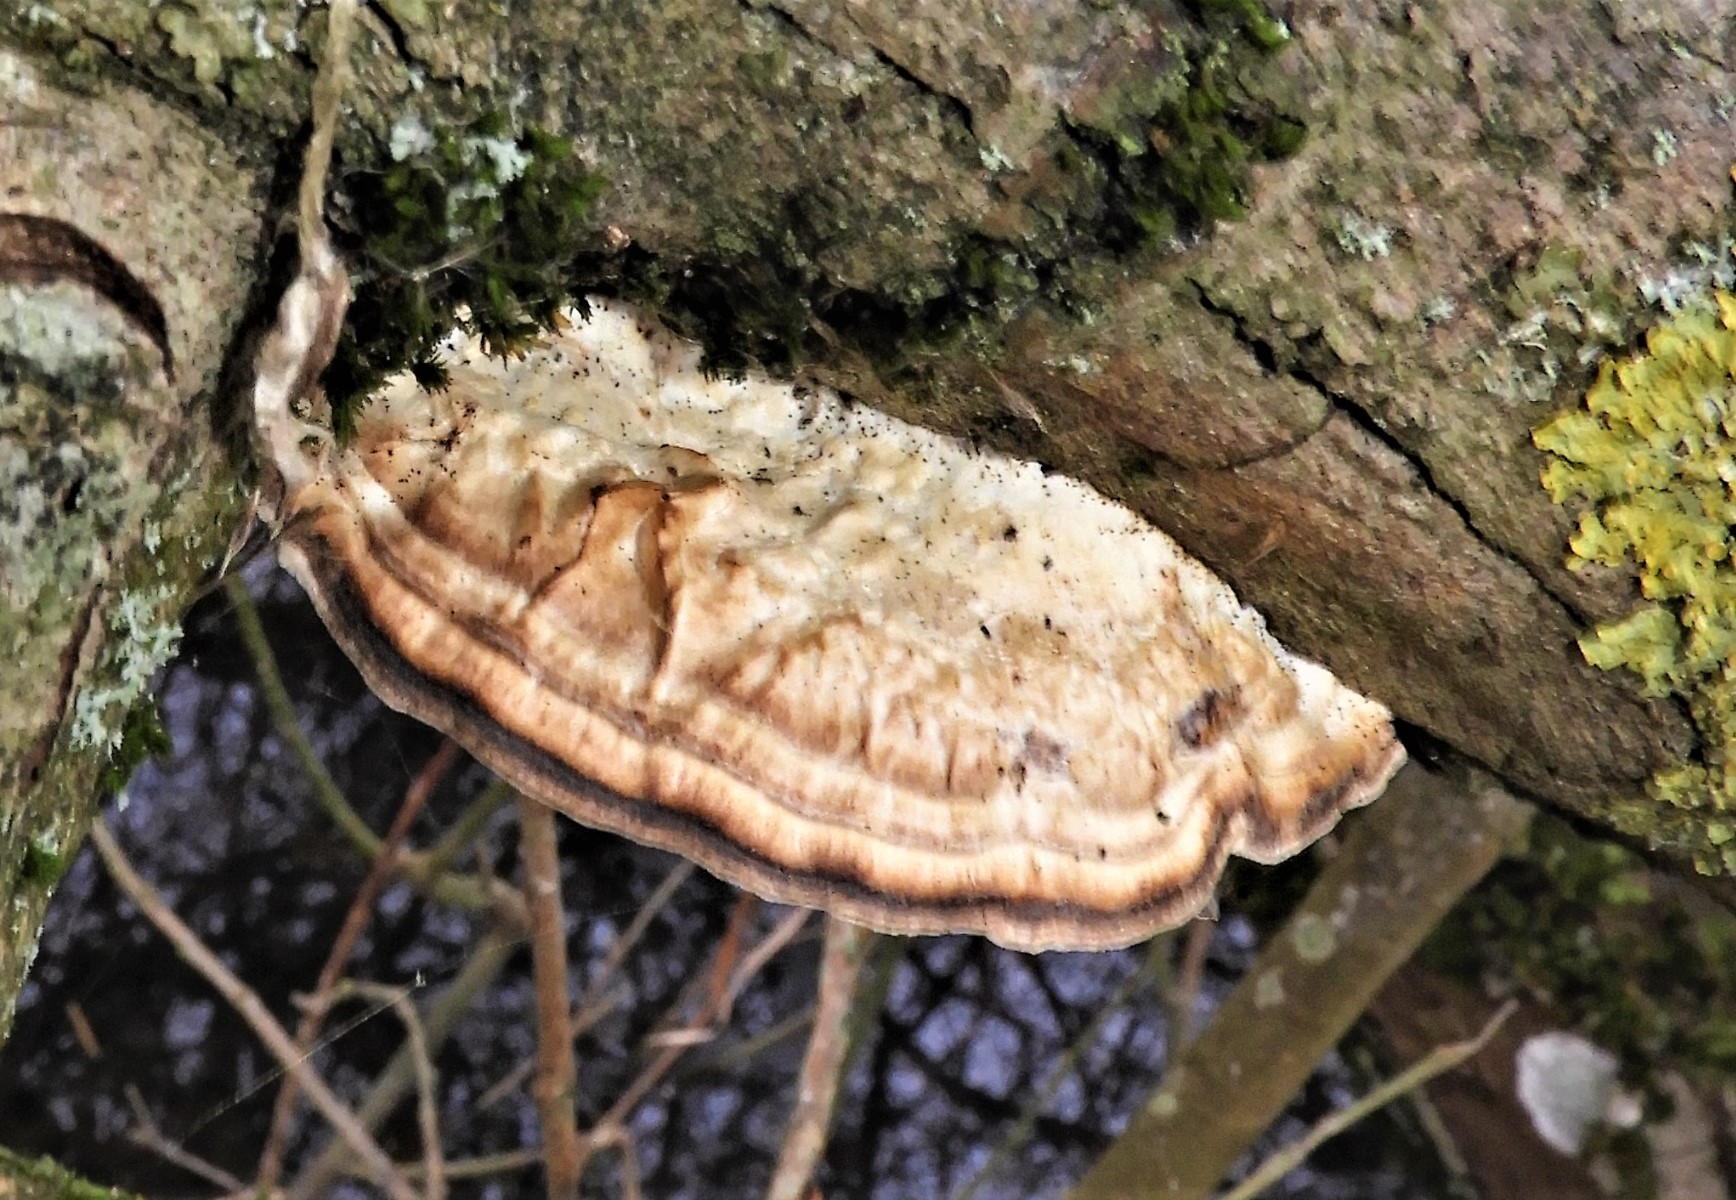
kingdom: Fungi
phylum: Basidiomycota
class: Agaricomycetes
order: Polyporales
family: Phanerochaetaceae
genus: Bjerkandera
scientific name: Bjerkandera adusta
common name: sveden sodporesvamp
